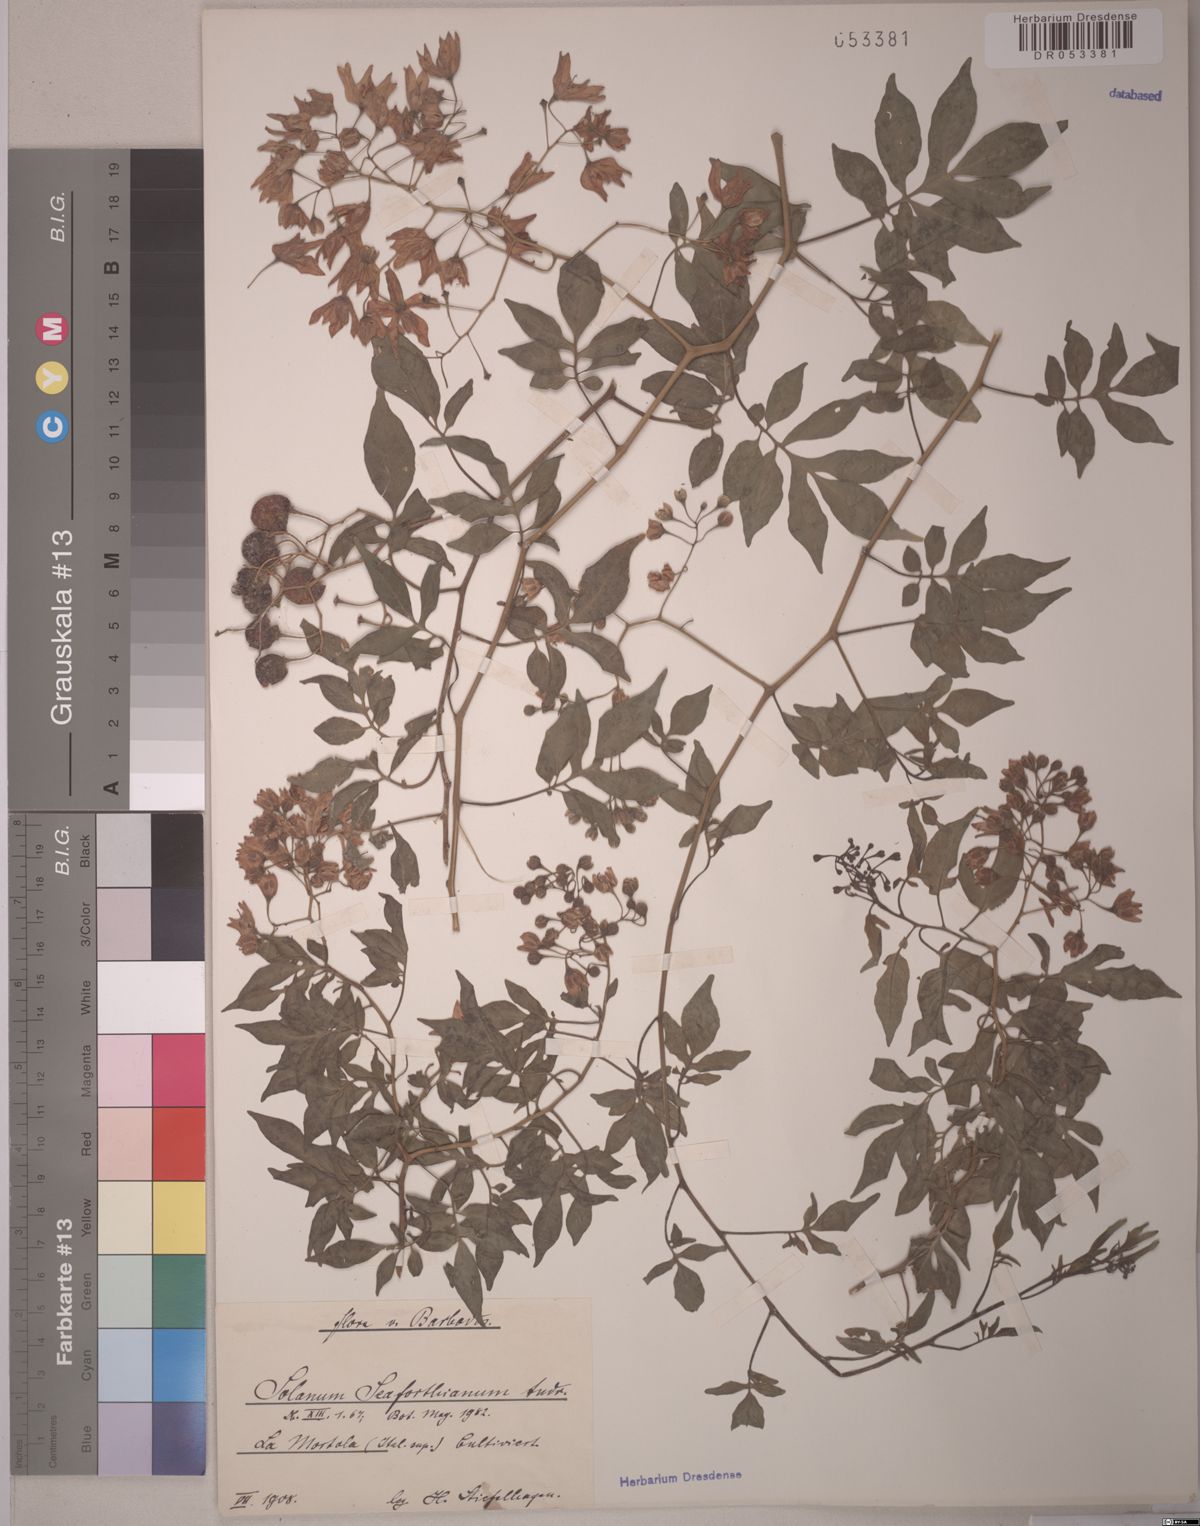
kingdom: Plantae
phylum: Tracheophyta
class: Magnoliopsida
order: Solanales
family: Solanaceae
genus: Solanum
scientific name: Solanum seaforthianum
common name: Brazilian nightshade
